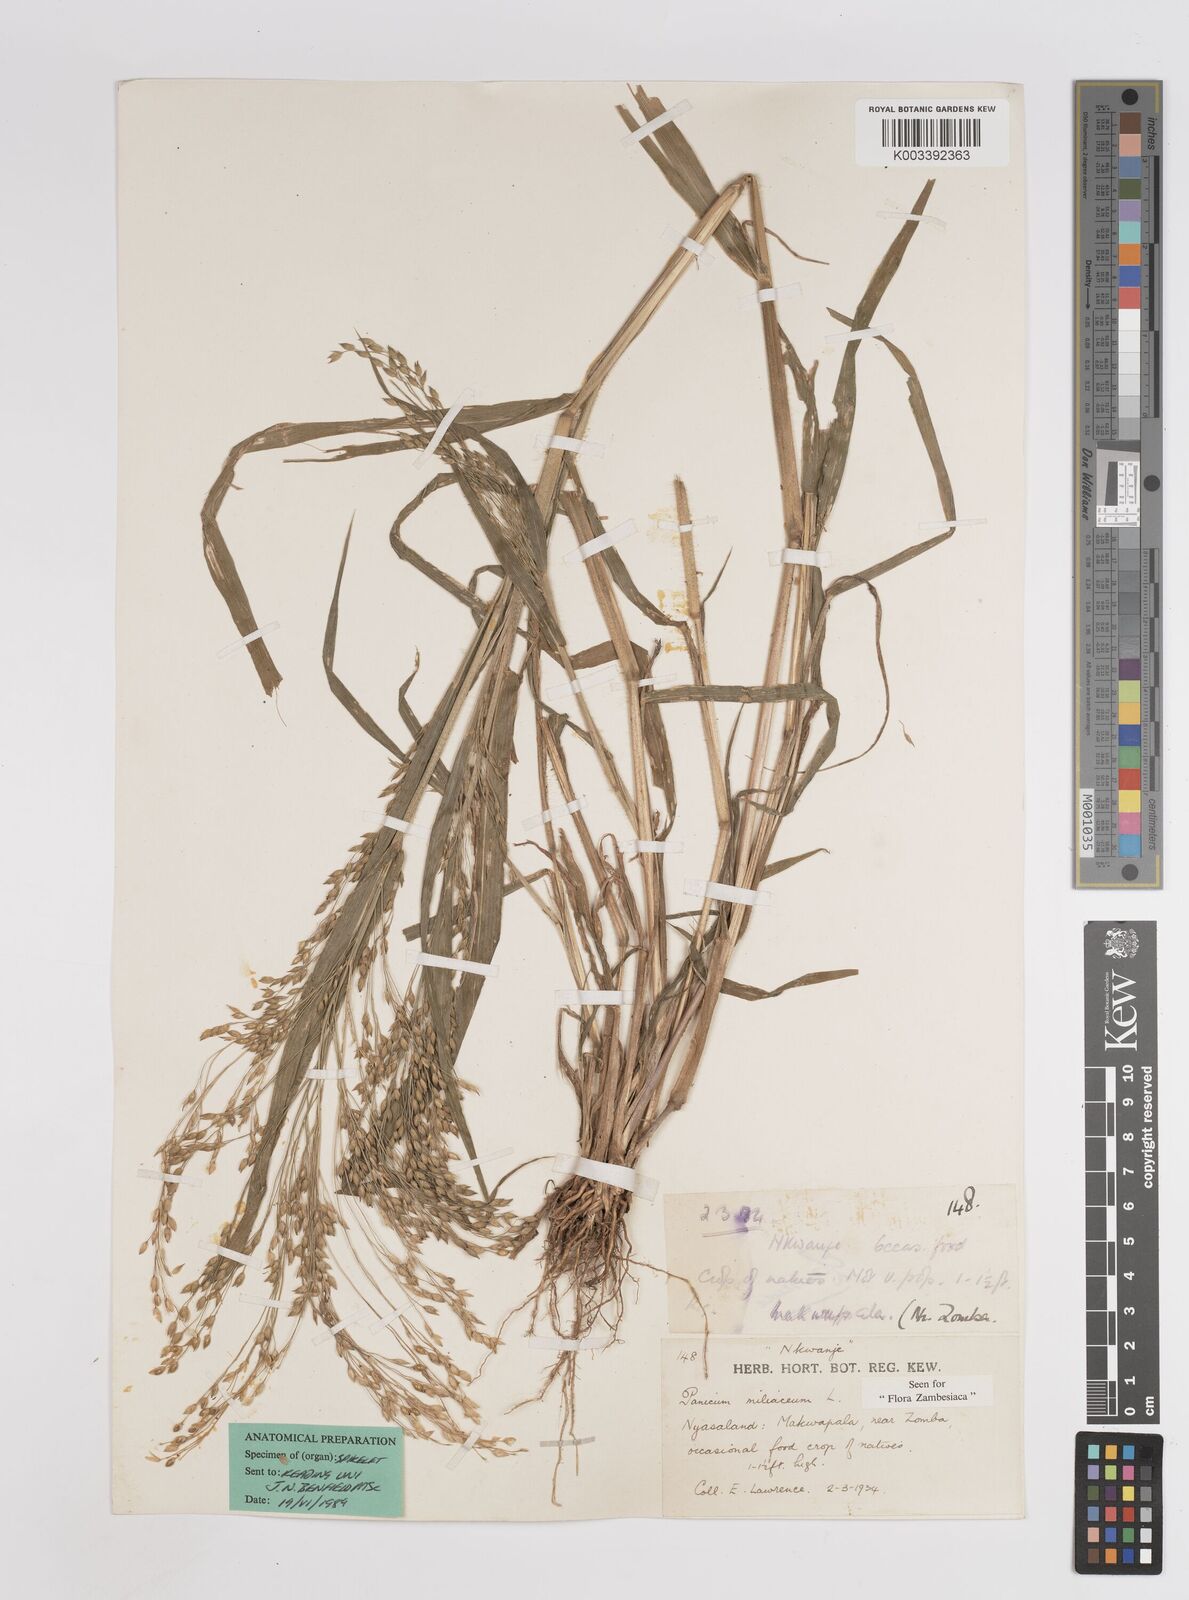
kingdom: Plantae
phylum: Tracheophyta
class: Liliopsida
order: Poales
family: Poaceae
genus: Panicum
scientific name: Panicum miliaceum
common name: Common millet
